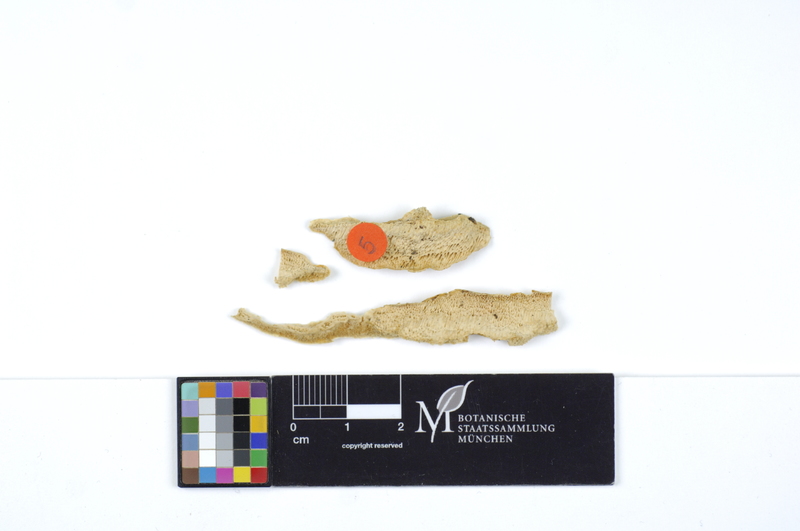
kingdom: Plantae
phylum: Tracheophyta
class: Pinopsida
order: Pinales
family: Pinaceae
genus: Pinus
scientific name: Pinus
